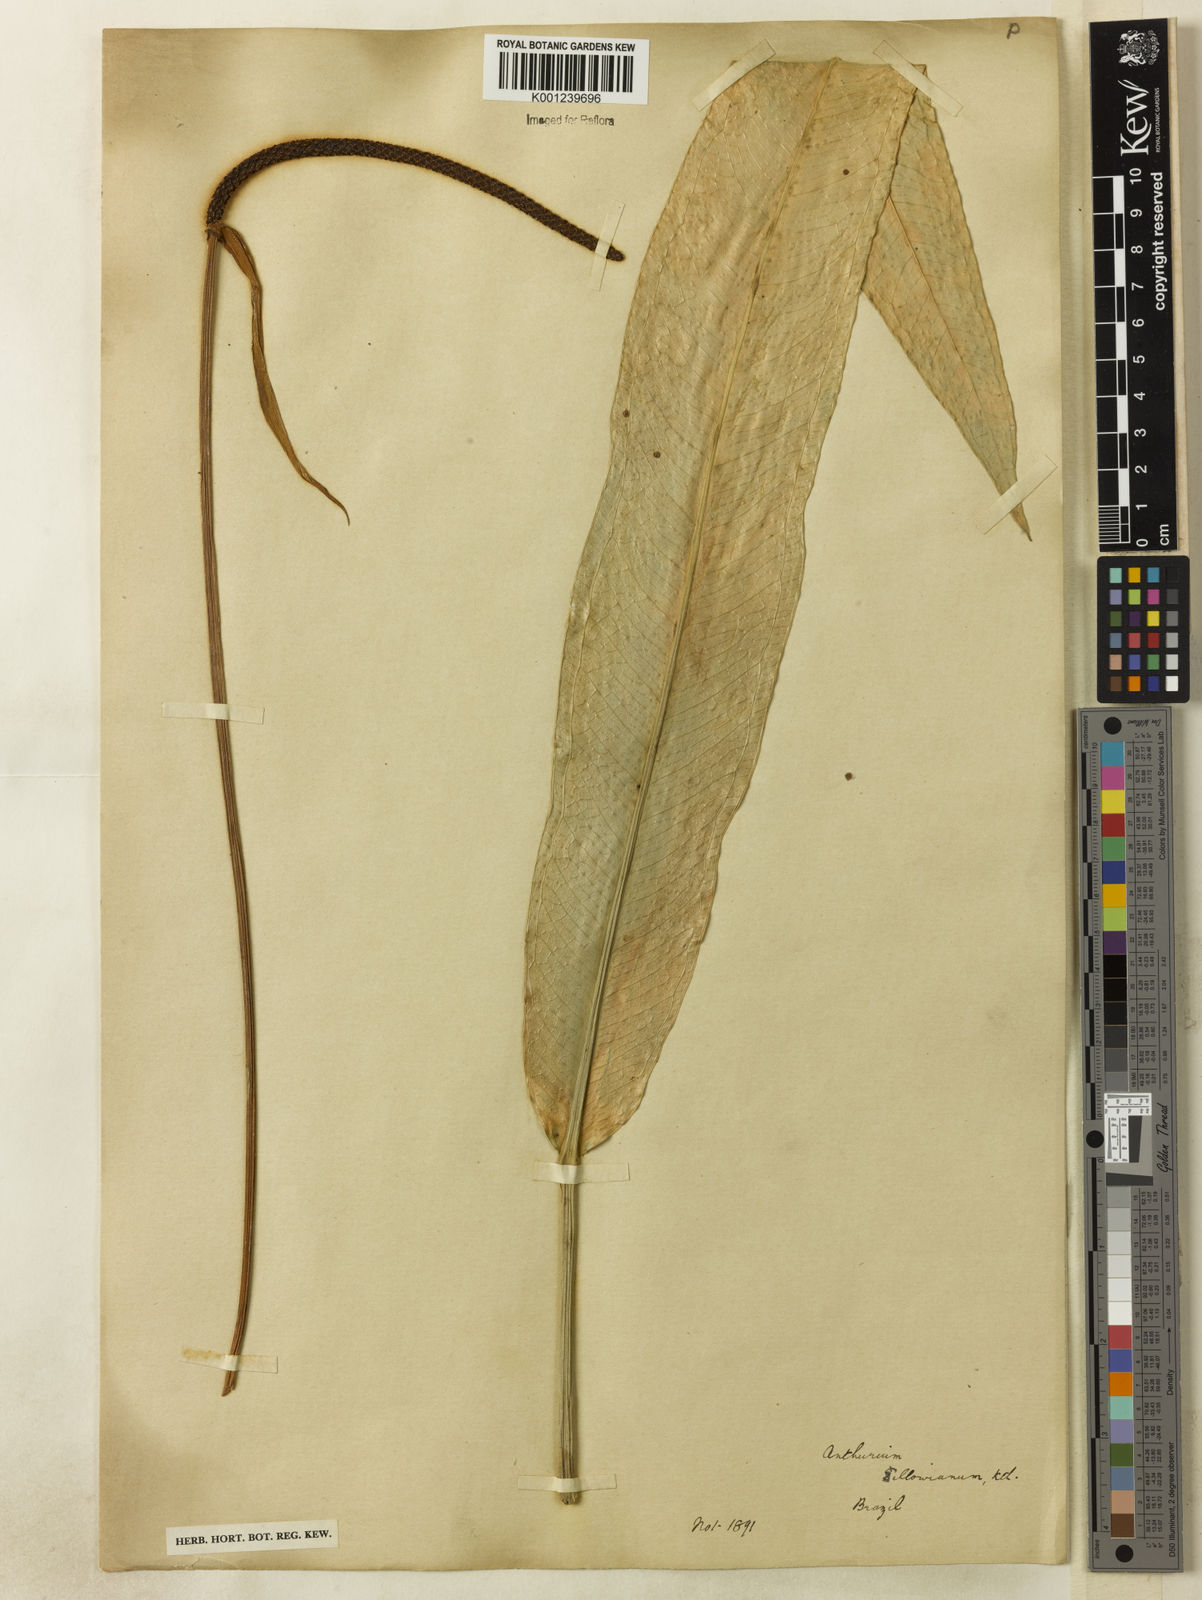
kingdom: Plantae
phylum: Tracheophyta
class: Liliopsida
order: Alismatales
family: Araceae
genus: Anthurium
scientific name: Anthurium sellowianum
